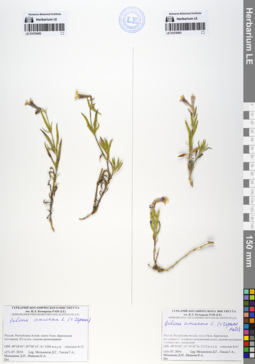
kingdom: Plantae
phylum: Tracheophyta
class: Magnoliopsida
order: Caryophyllales
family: Caryophyllaceae
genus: Silene
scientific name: Silene amoena
